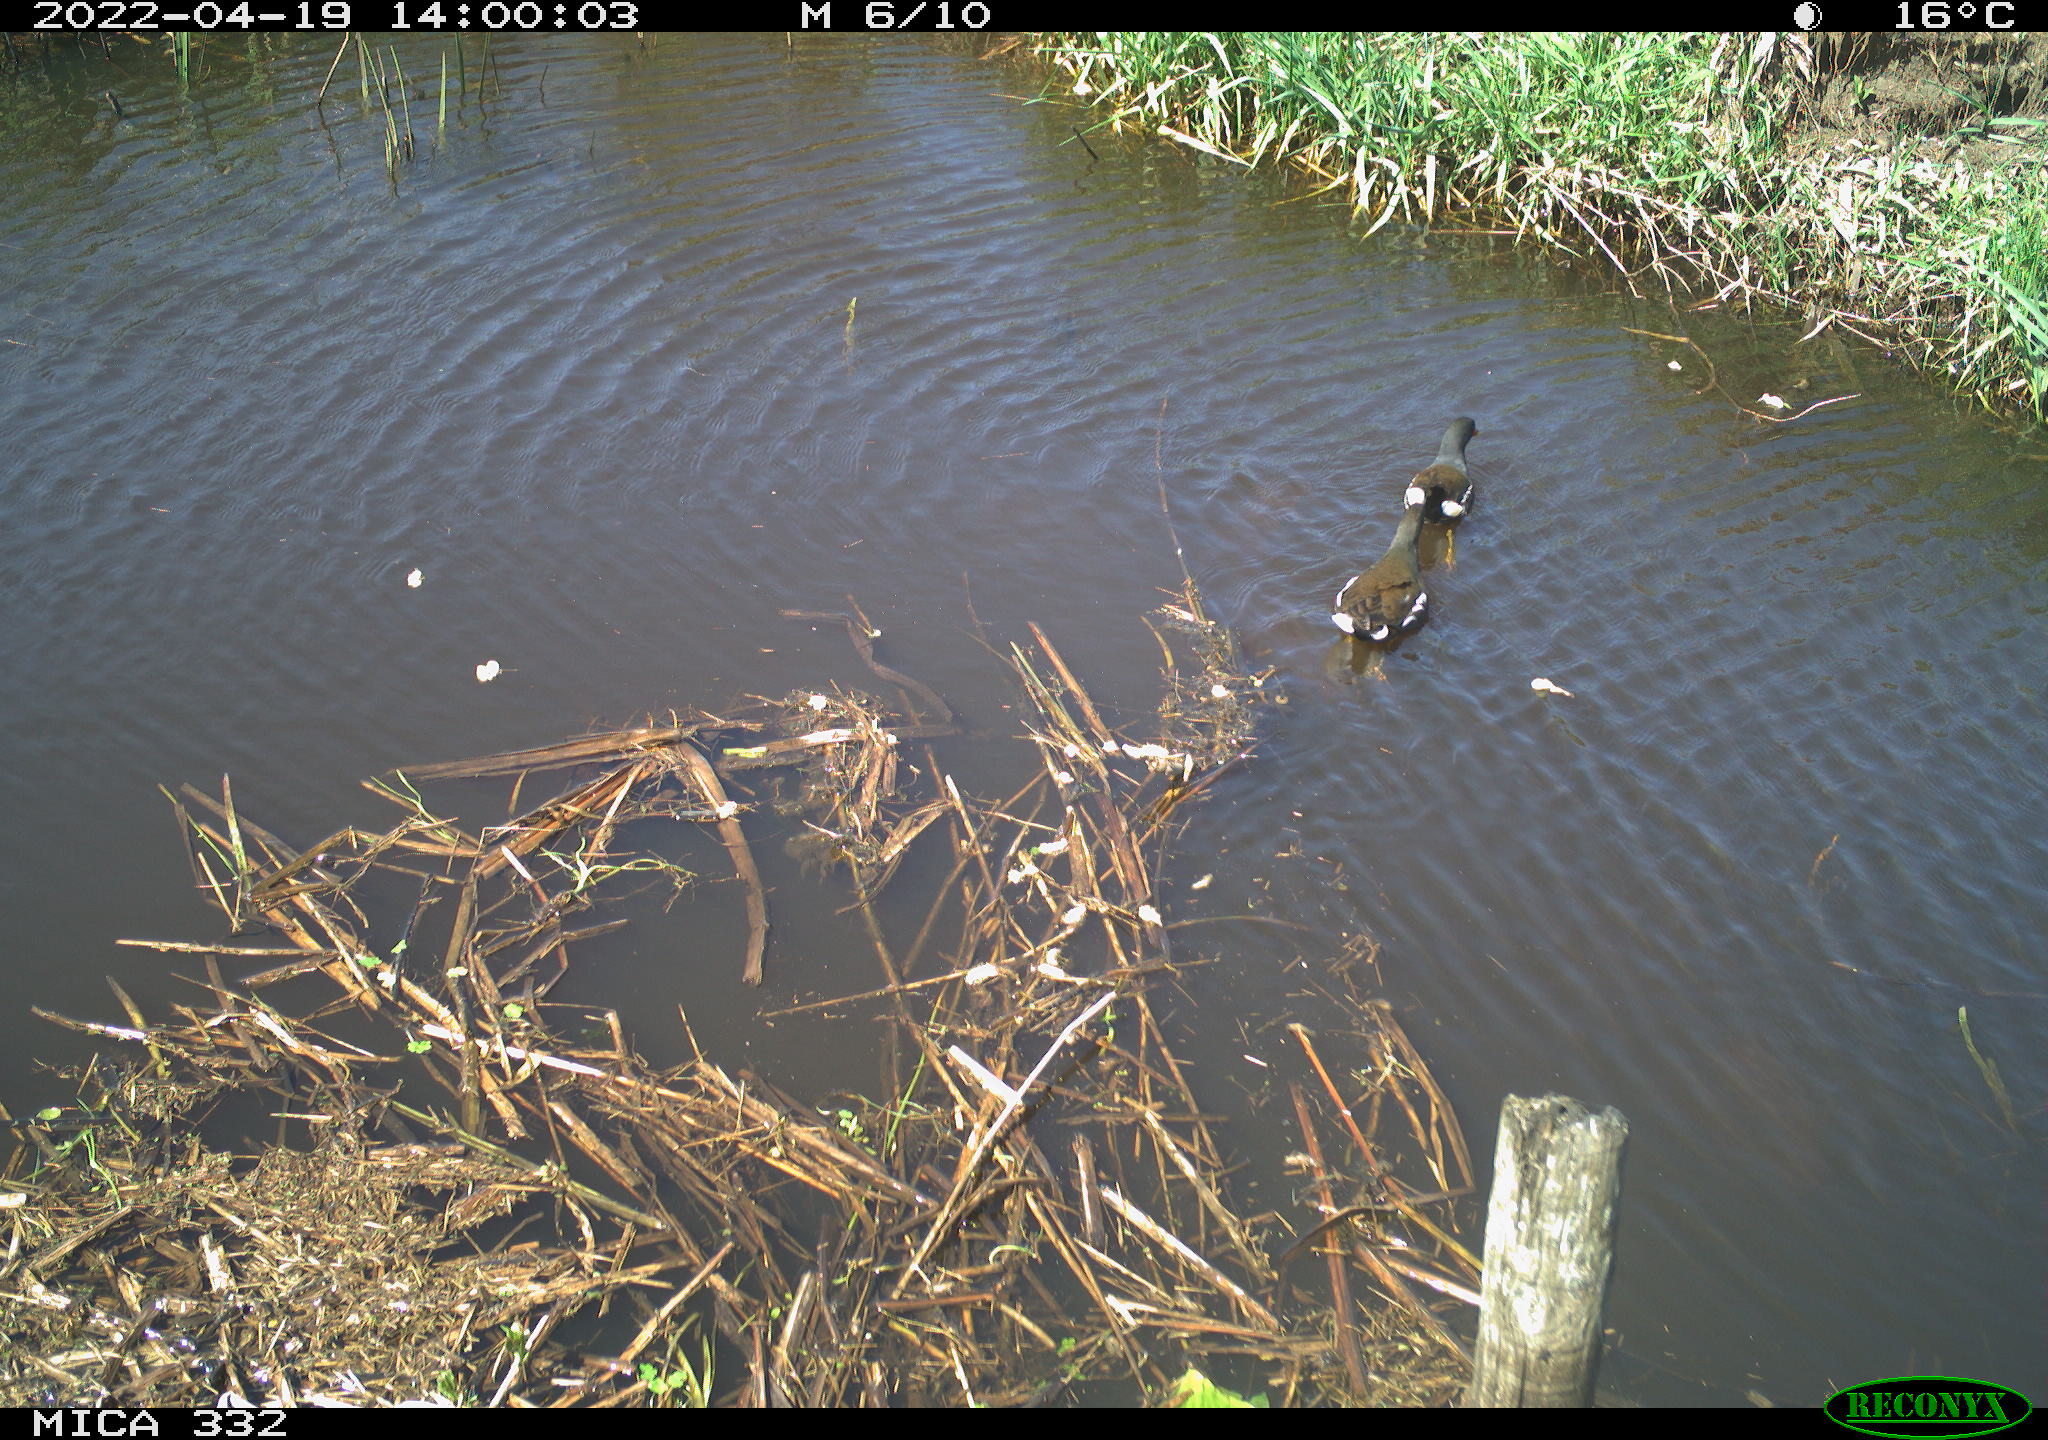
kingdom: Animalia
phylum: Chordata
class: Aves
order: Gruiformes
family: Rallidae
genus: Gallinula
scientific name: Gallinula chloropus
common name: Common moorhen
